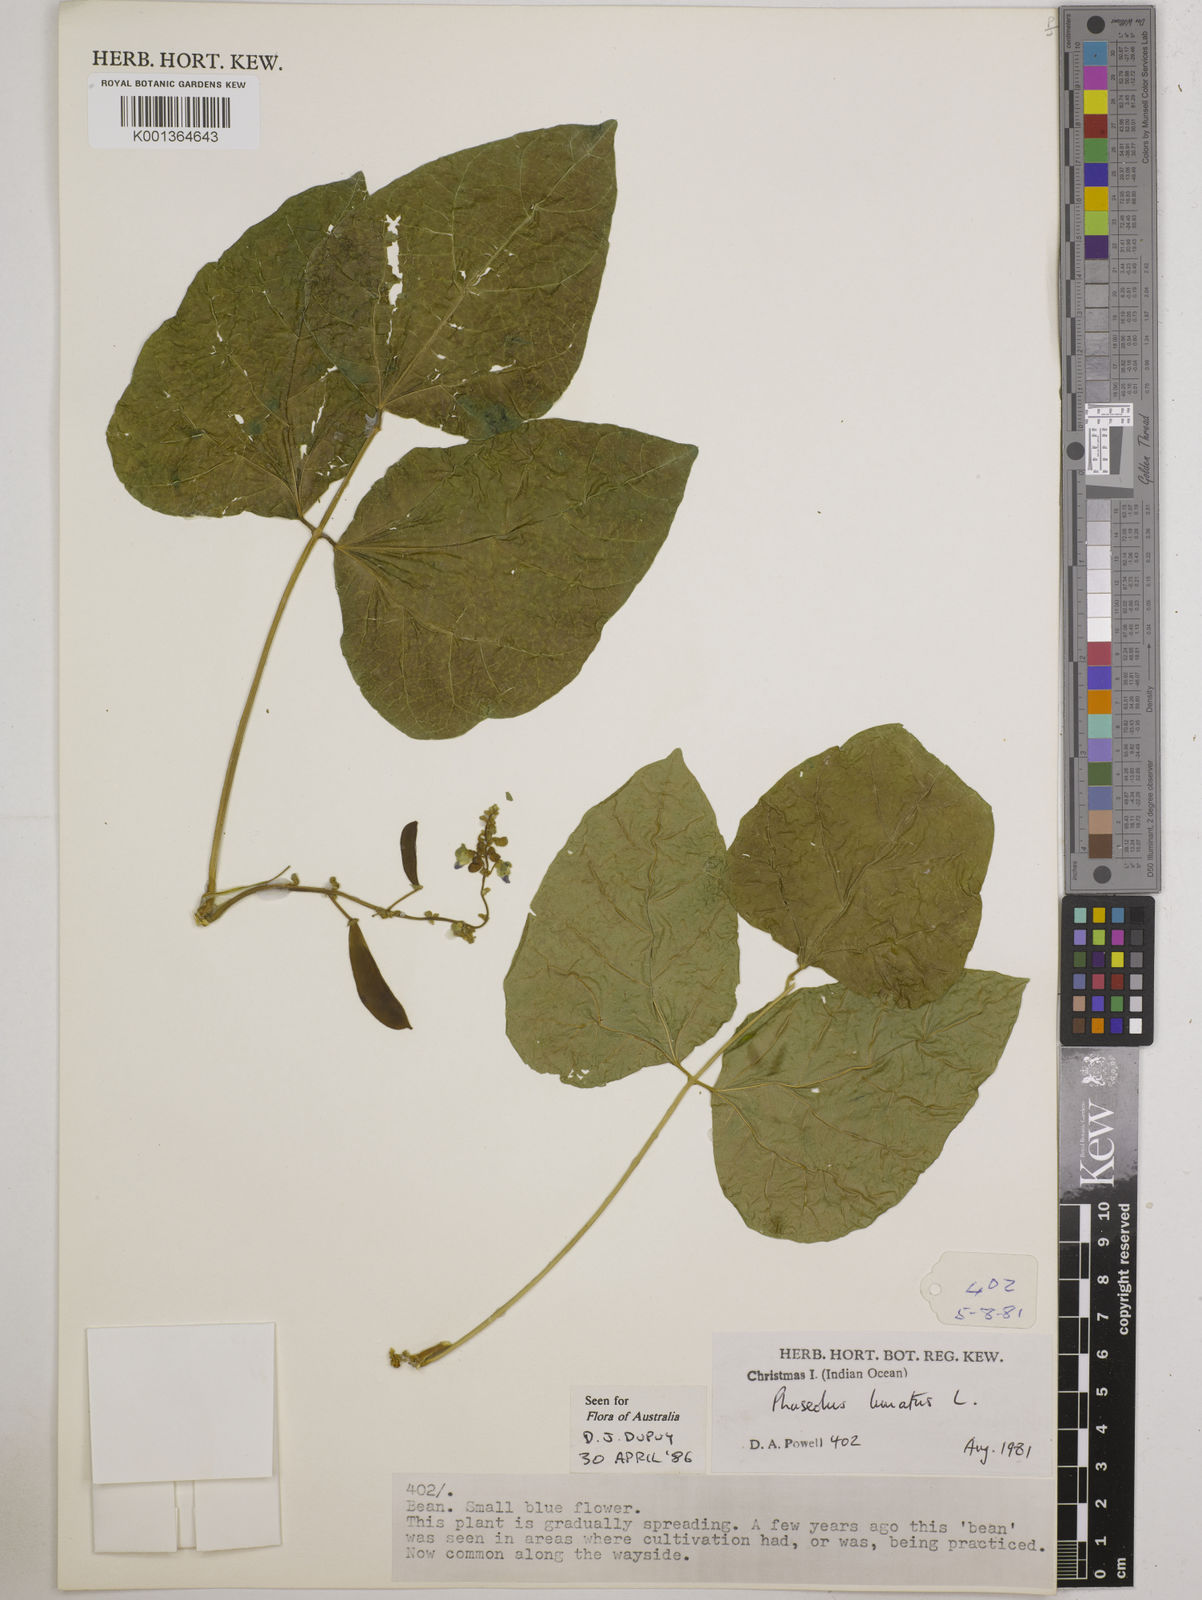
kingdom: Plantae
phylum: Tracheophyta
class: Magnoliopsida
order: Fabales
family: Fabaceae
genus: Phaseolus
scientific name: Phaseolus lunatus
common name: Sieva bean
